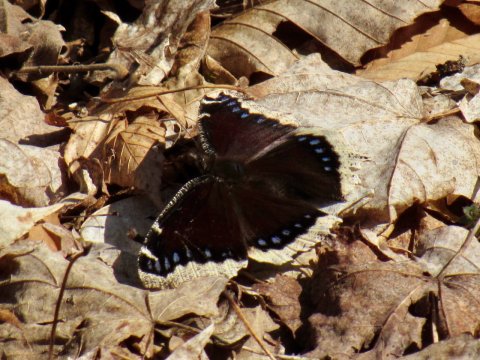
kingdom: Animalia
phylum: Arthropoda
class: Insecta
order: Lepidoptera
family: Nymphalidae
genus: Nymphalis
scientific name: Nymphalis antiopa
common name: Mourning Cloak
